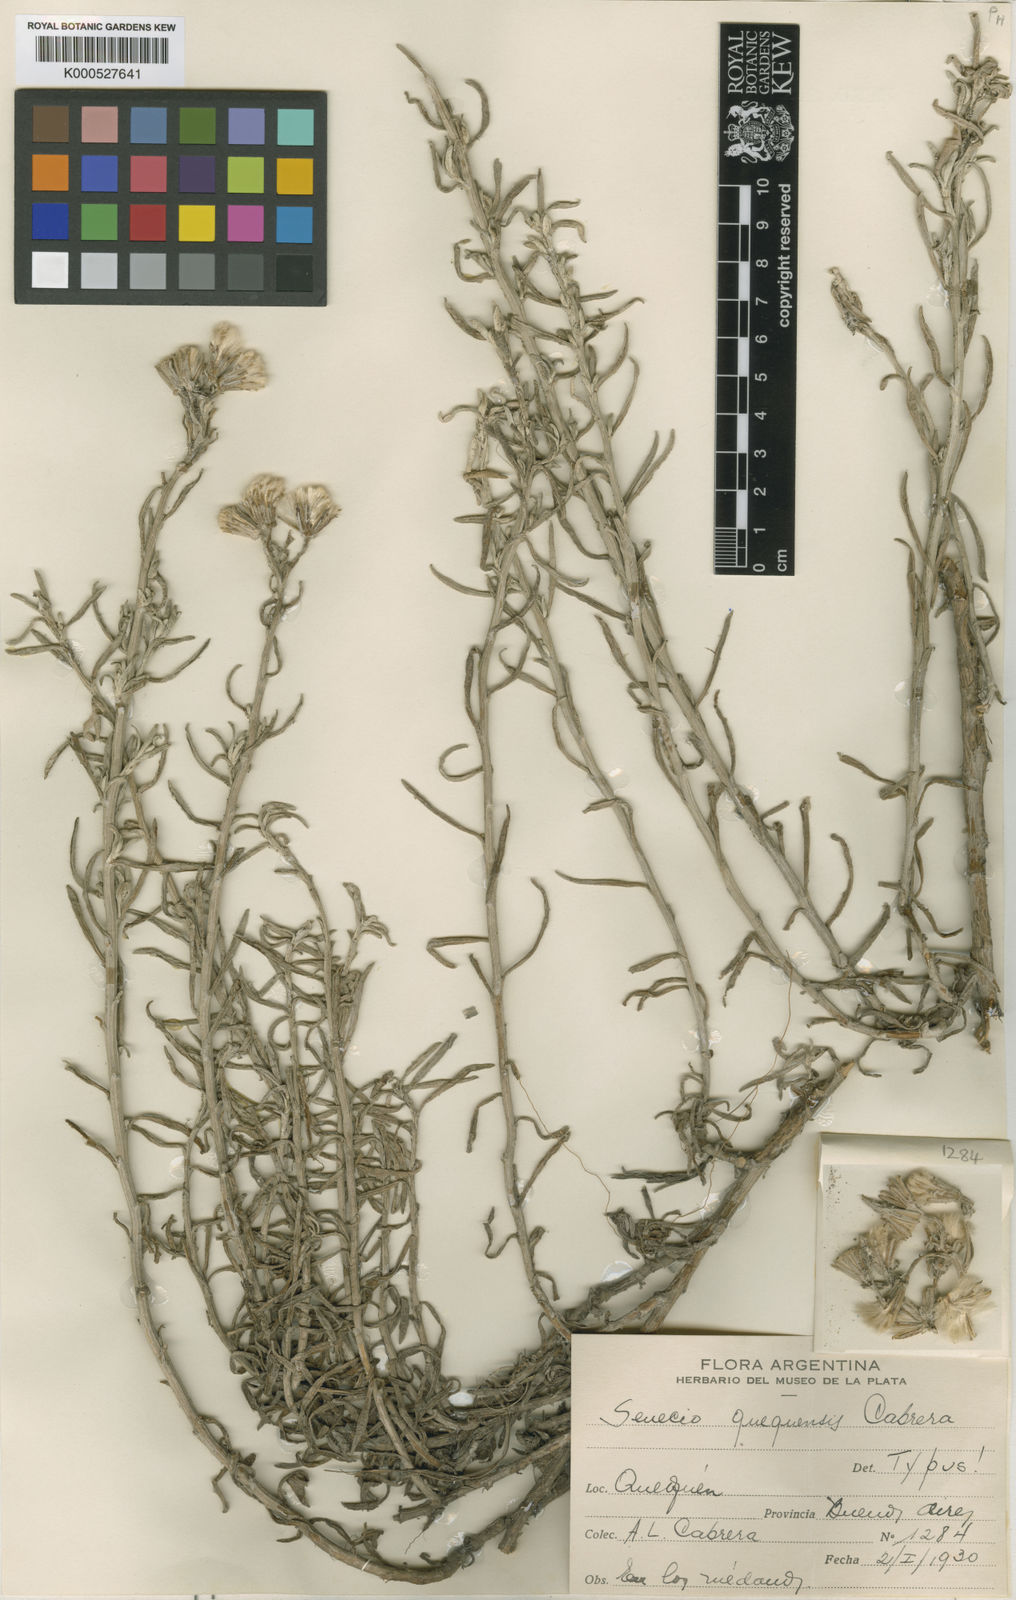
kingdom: Plantae
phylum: Tracheophyta
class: Magnoliopsida
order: Asterales
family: Asteraceae
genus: Senecio
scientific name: Senecio bergii
